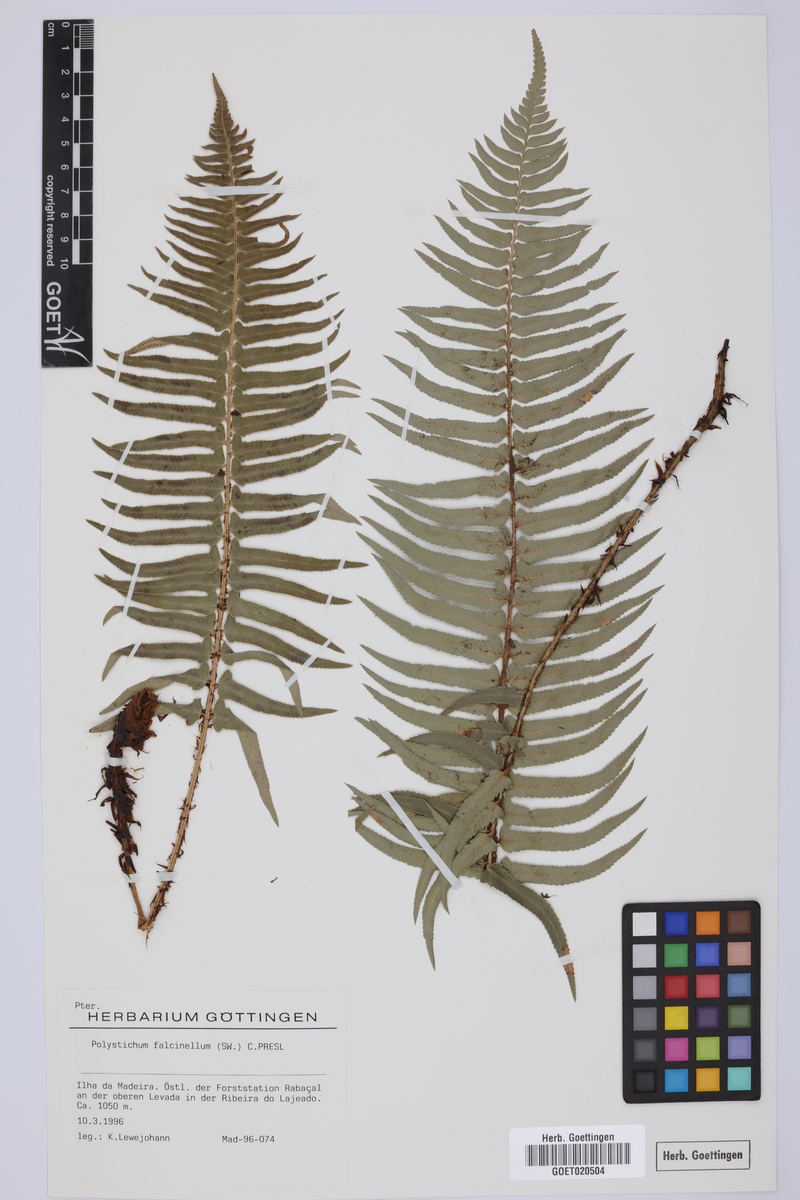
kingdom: Plantae
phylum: Tracheophyta
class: Polypodiopsida
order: Polypodiales
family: Dryopteridaceae
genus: Polystichum
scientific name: Polystichum falcinellum
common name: Madeira sword-fern
